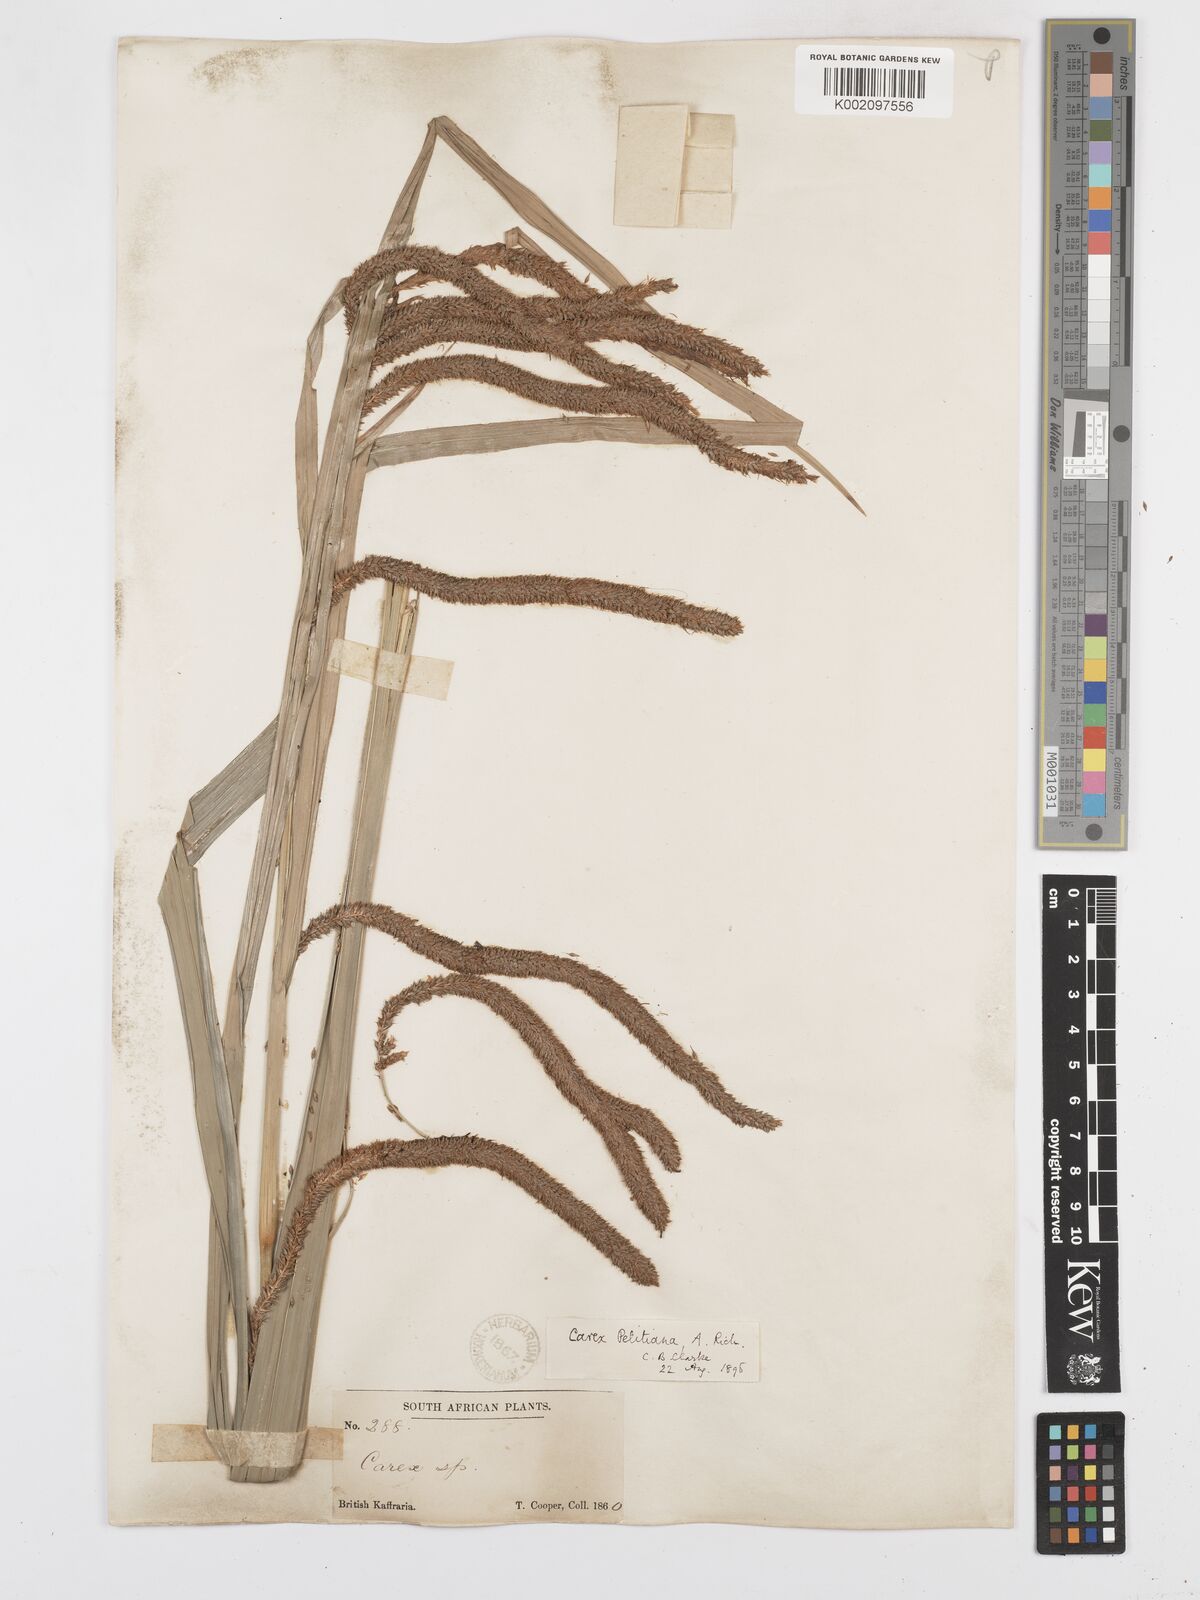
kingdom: Plantae
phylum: Tracheophyta
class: Liliopsida
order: Poales
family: Cyperaceae
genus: Carex
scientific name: Carex petitiana
